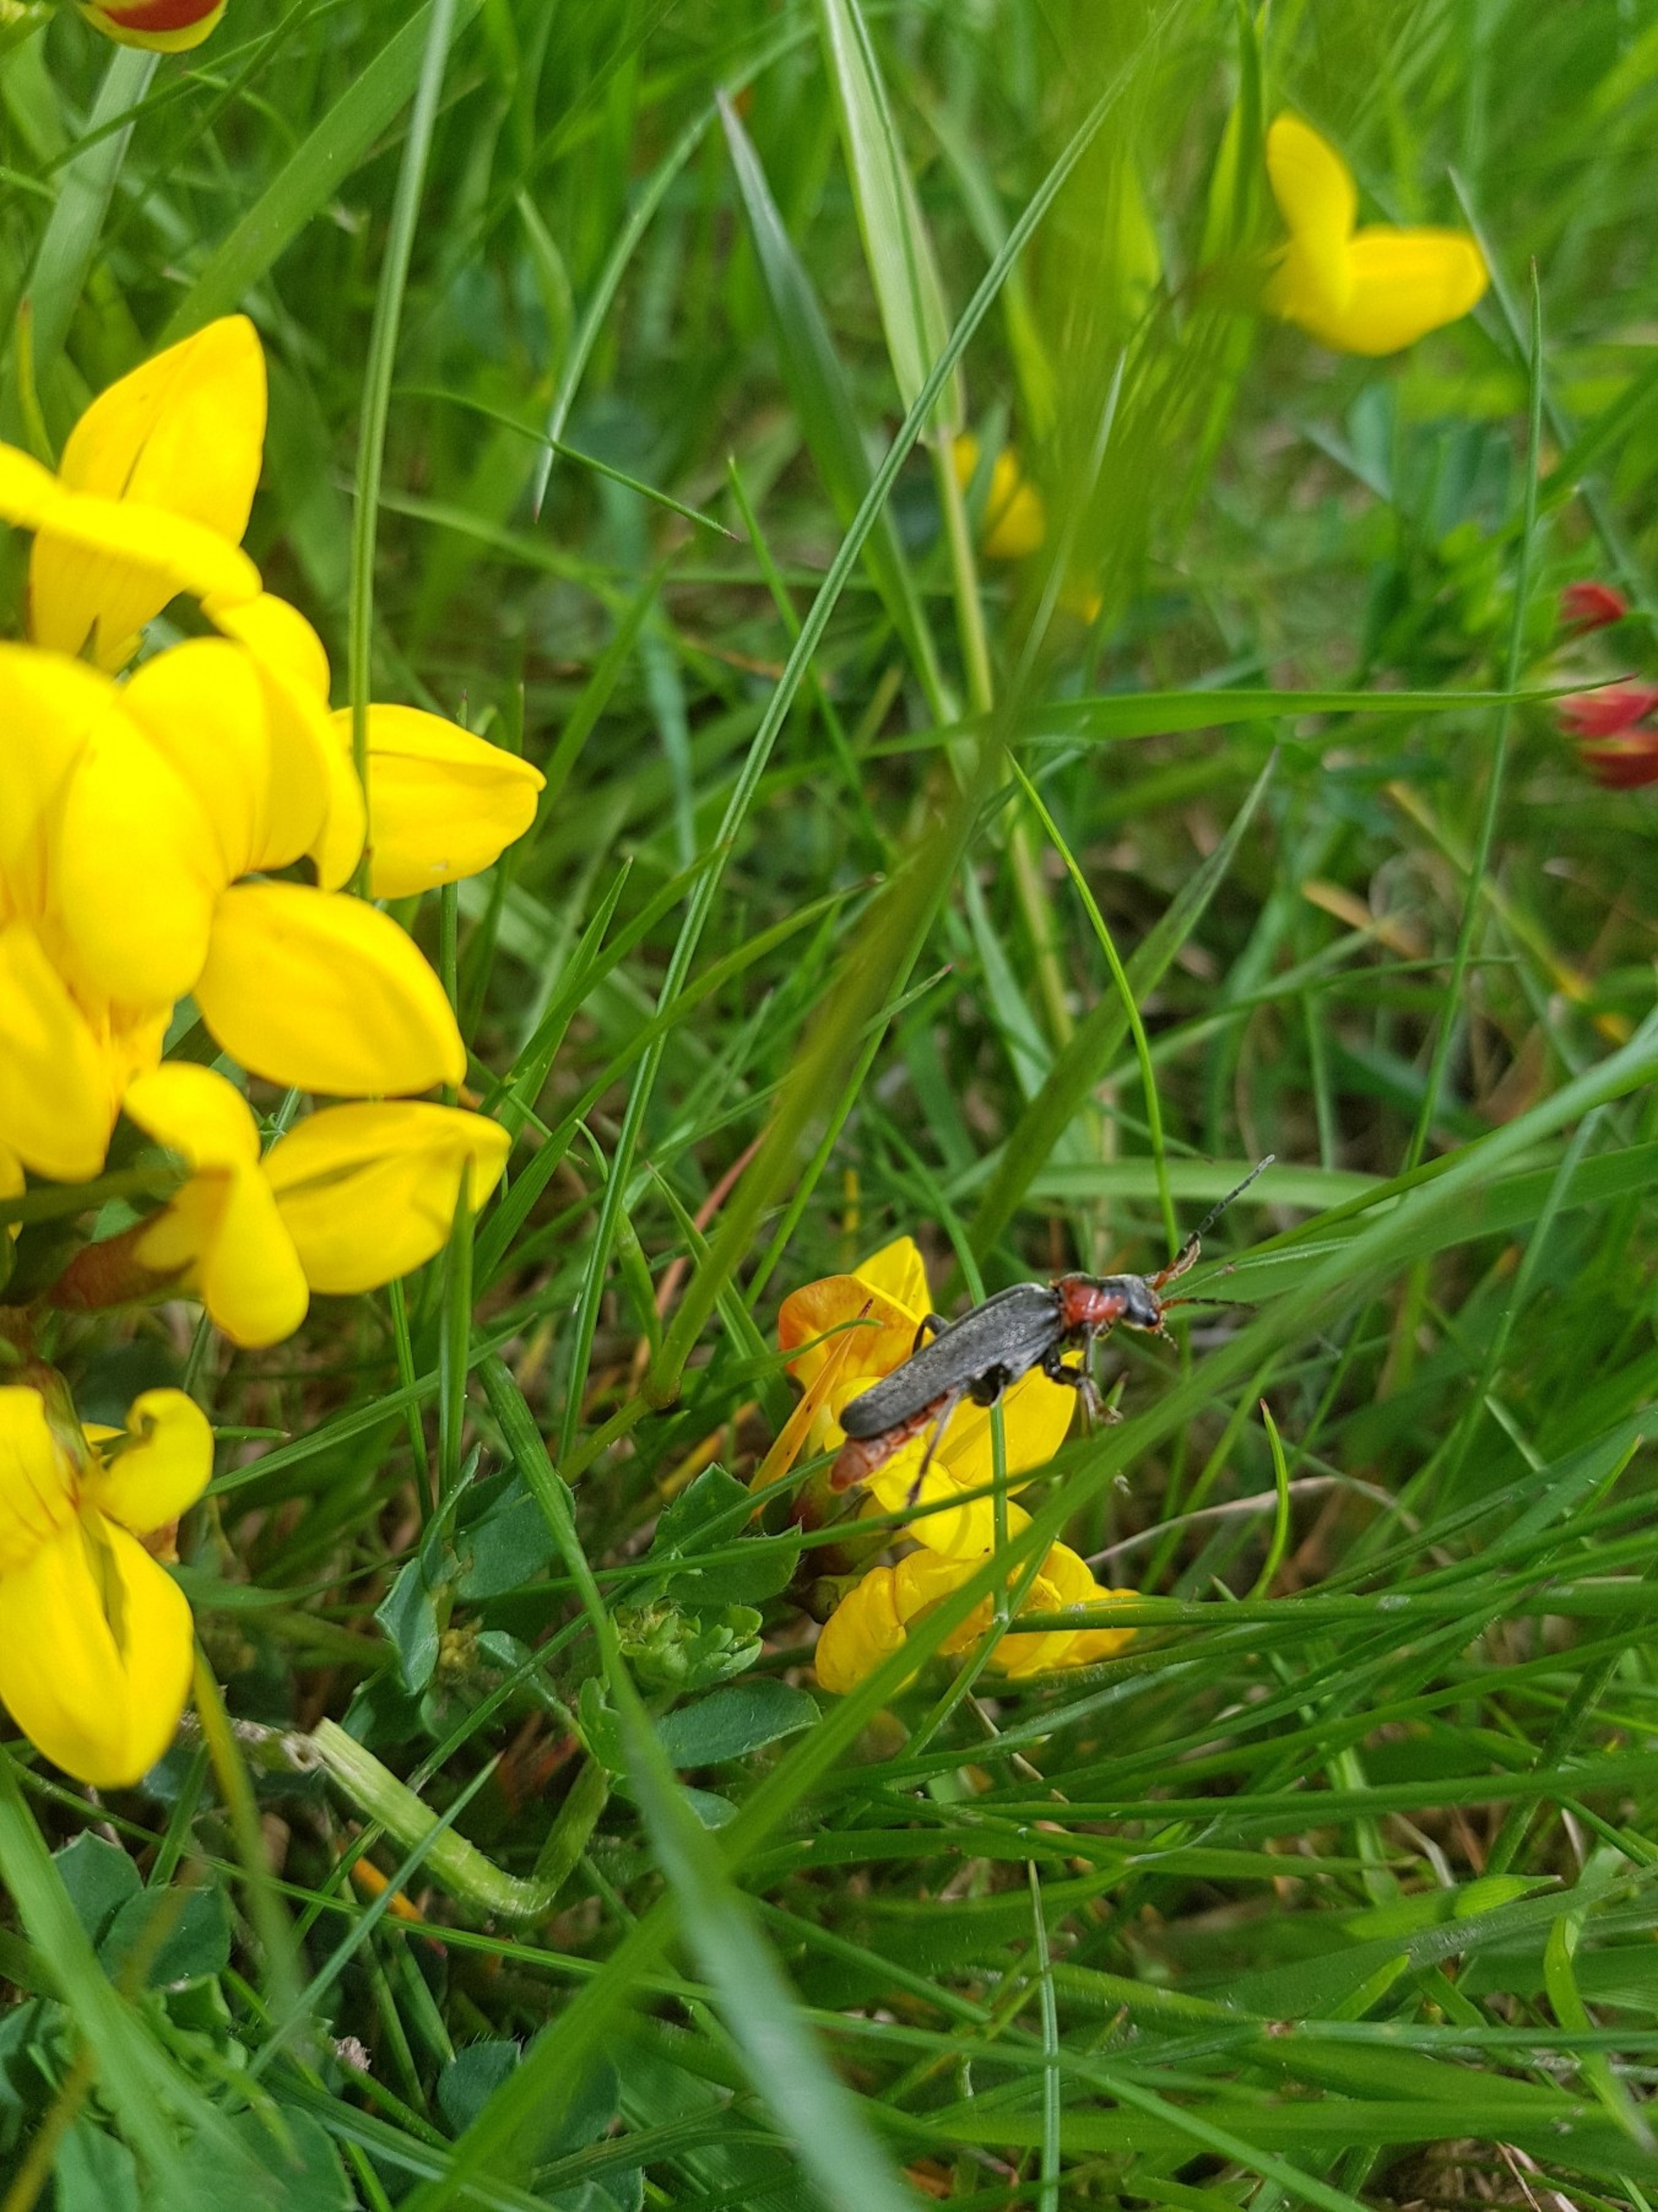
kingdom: Animalia
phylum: Arthropoda
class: Insecta
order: Coleoptera
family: Cantharidae
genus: Cantharis
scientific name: Cantharis fusca
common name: Stor blødvinge
